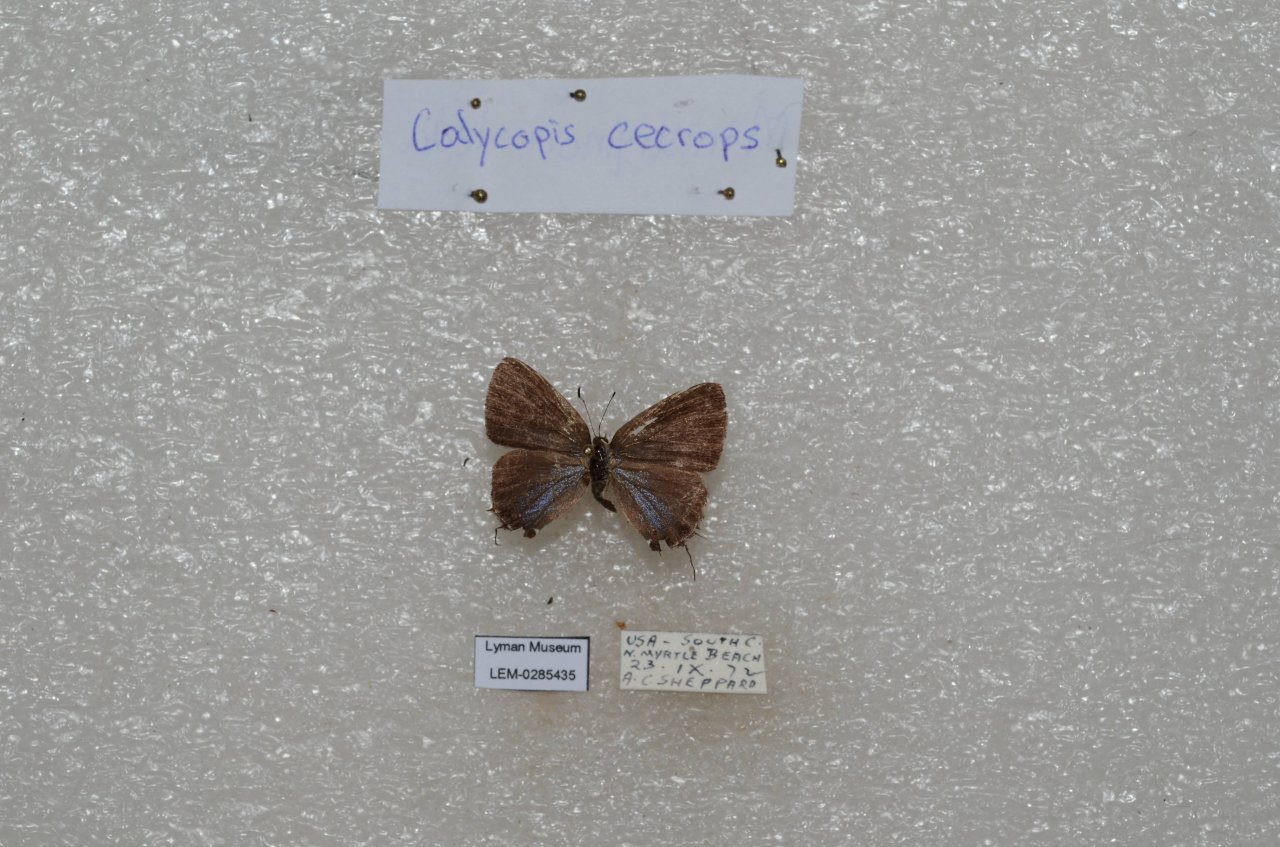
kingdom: Animalia
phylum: Arthropoda
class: Insecta
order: Lepidoptera
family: Lycaenidae
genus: Calycopis
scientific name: Calycopis cecrops
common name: Red-banded Hairstreak
